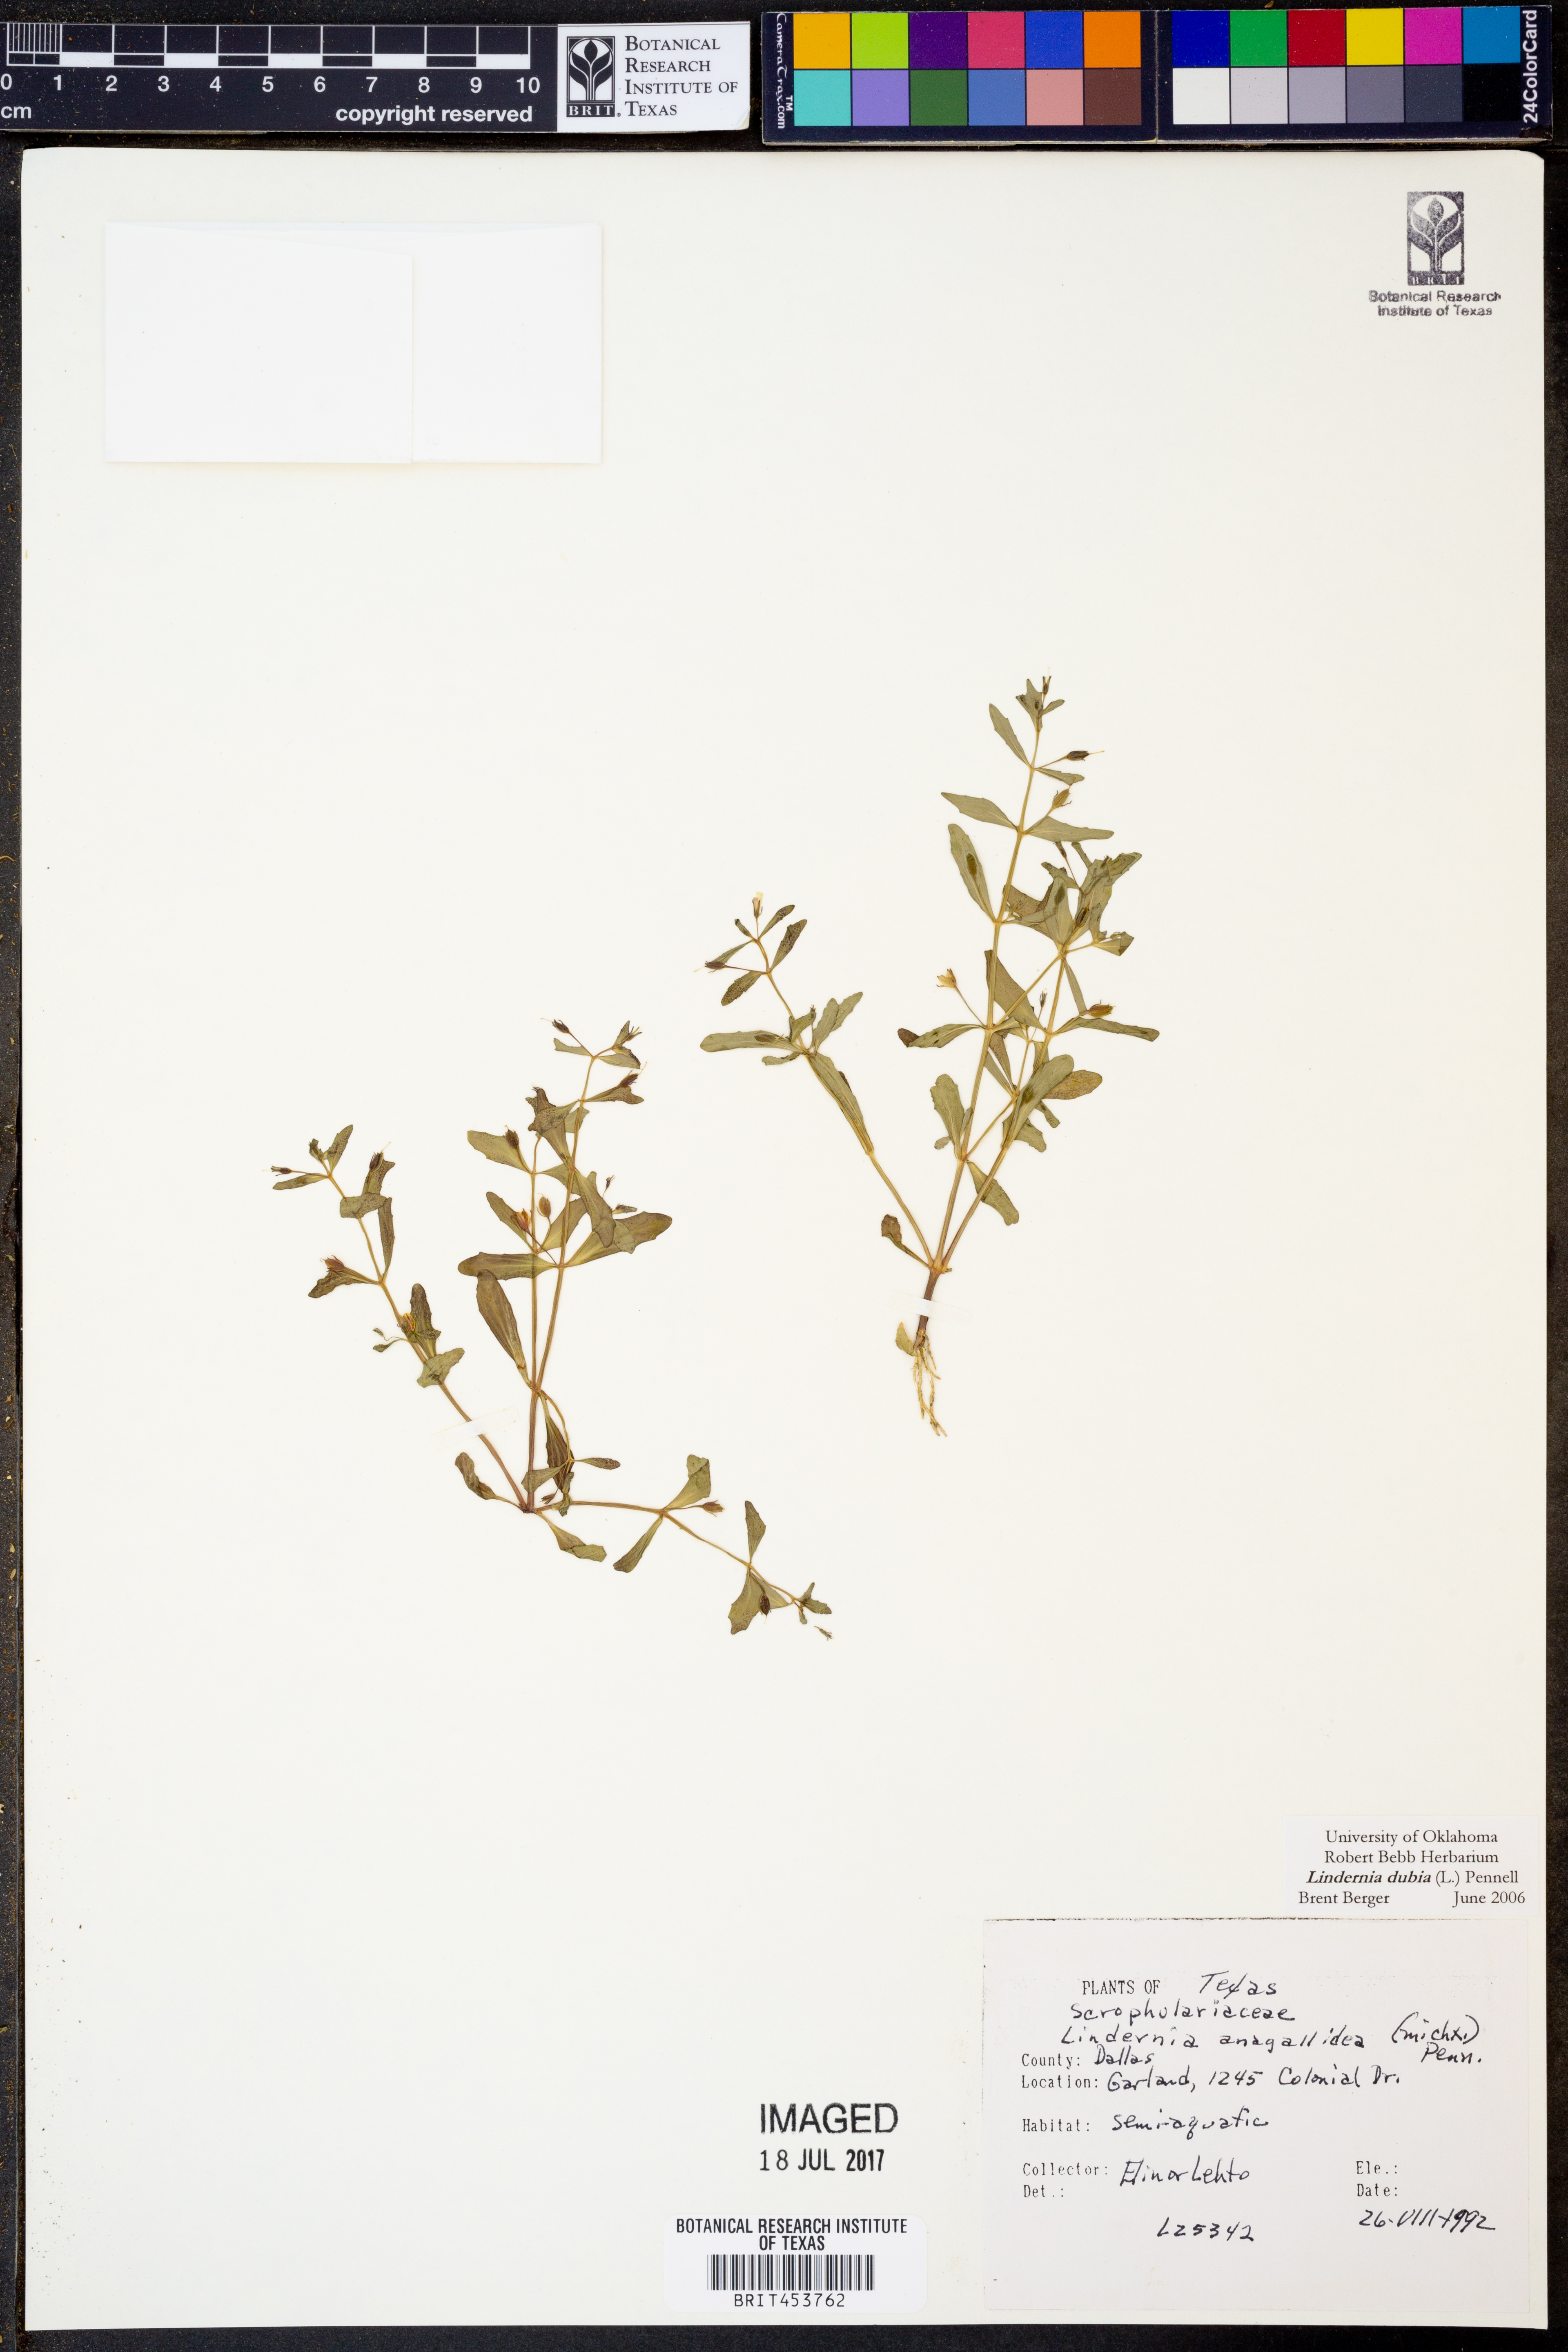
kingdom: Plantae
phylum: Tracheophyta
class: Magnoliopsida
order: Lamiales
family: Linderniaceae
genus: Lindernia
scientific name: Lindernia dubia
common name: Annual false pimpernel
